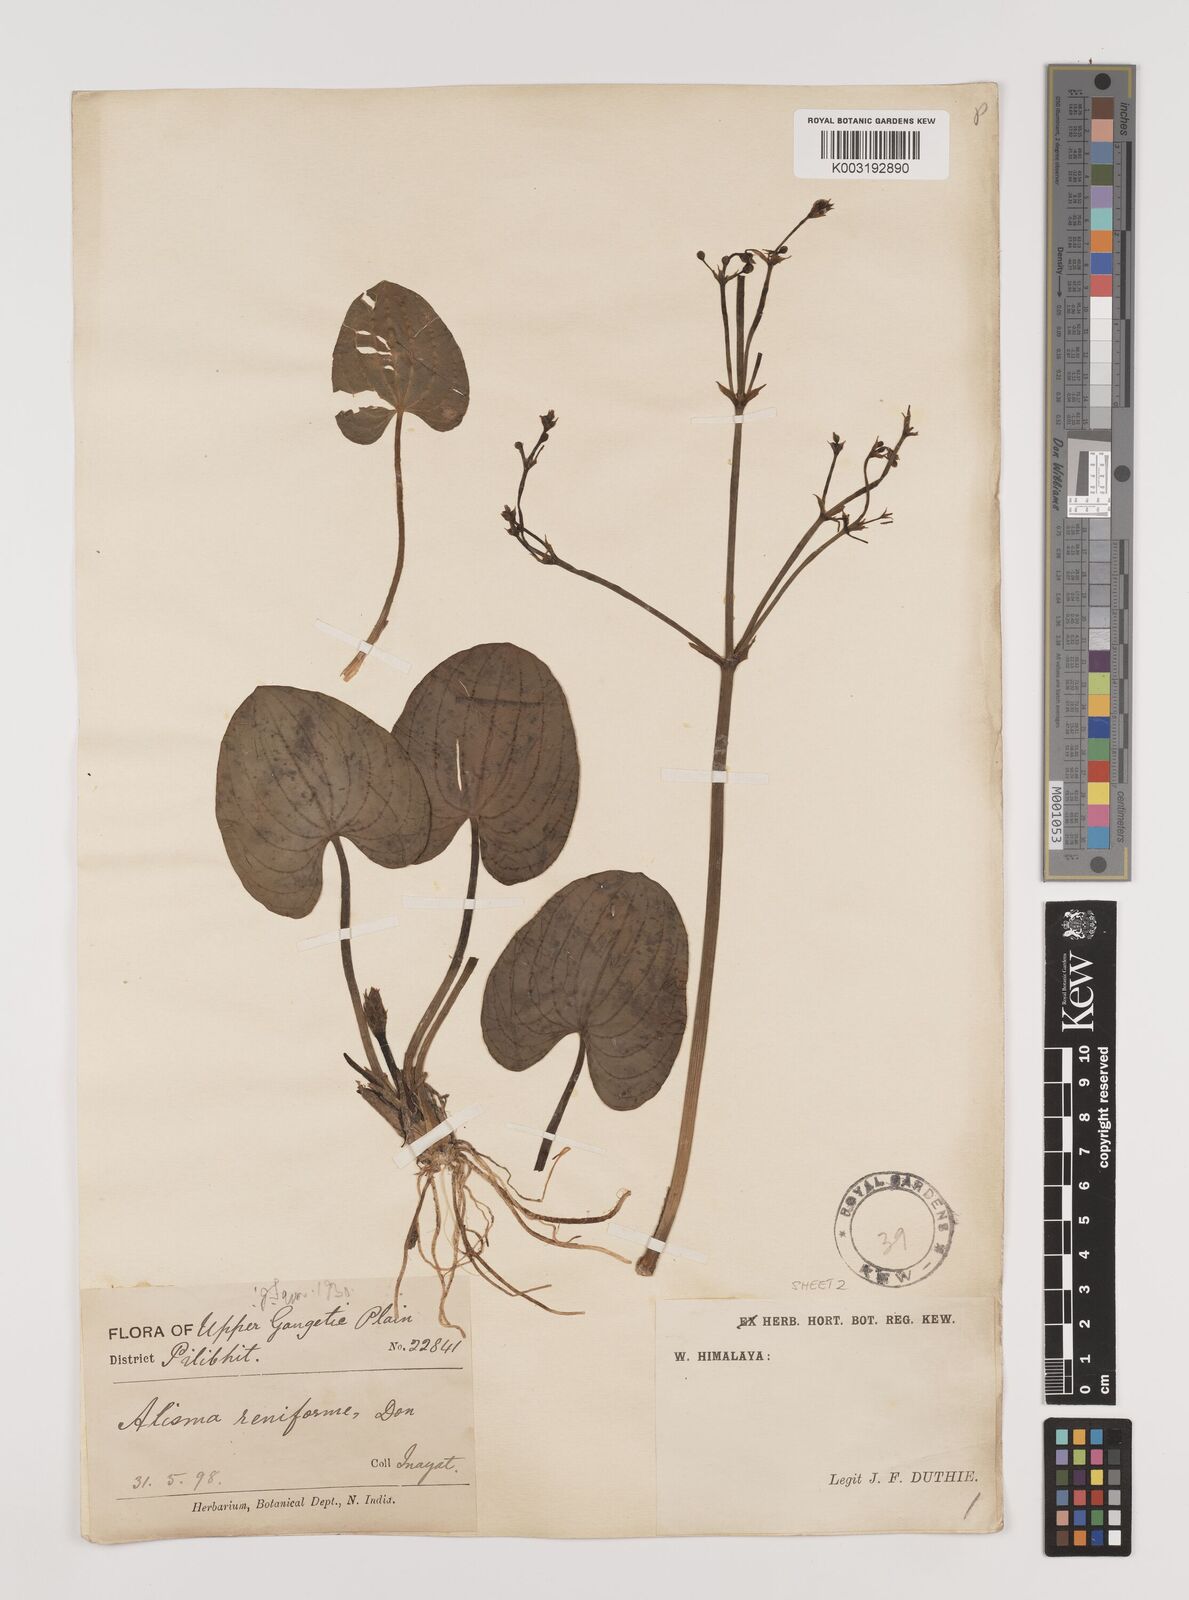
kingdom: Plantae
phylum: Tracheophyta
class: Liliopsida
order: Alismatales
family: Alismataceae
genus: Caldesia
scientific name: Caldesia parnassifolia
